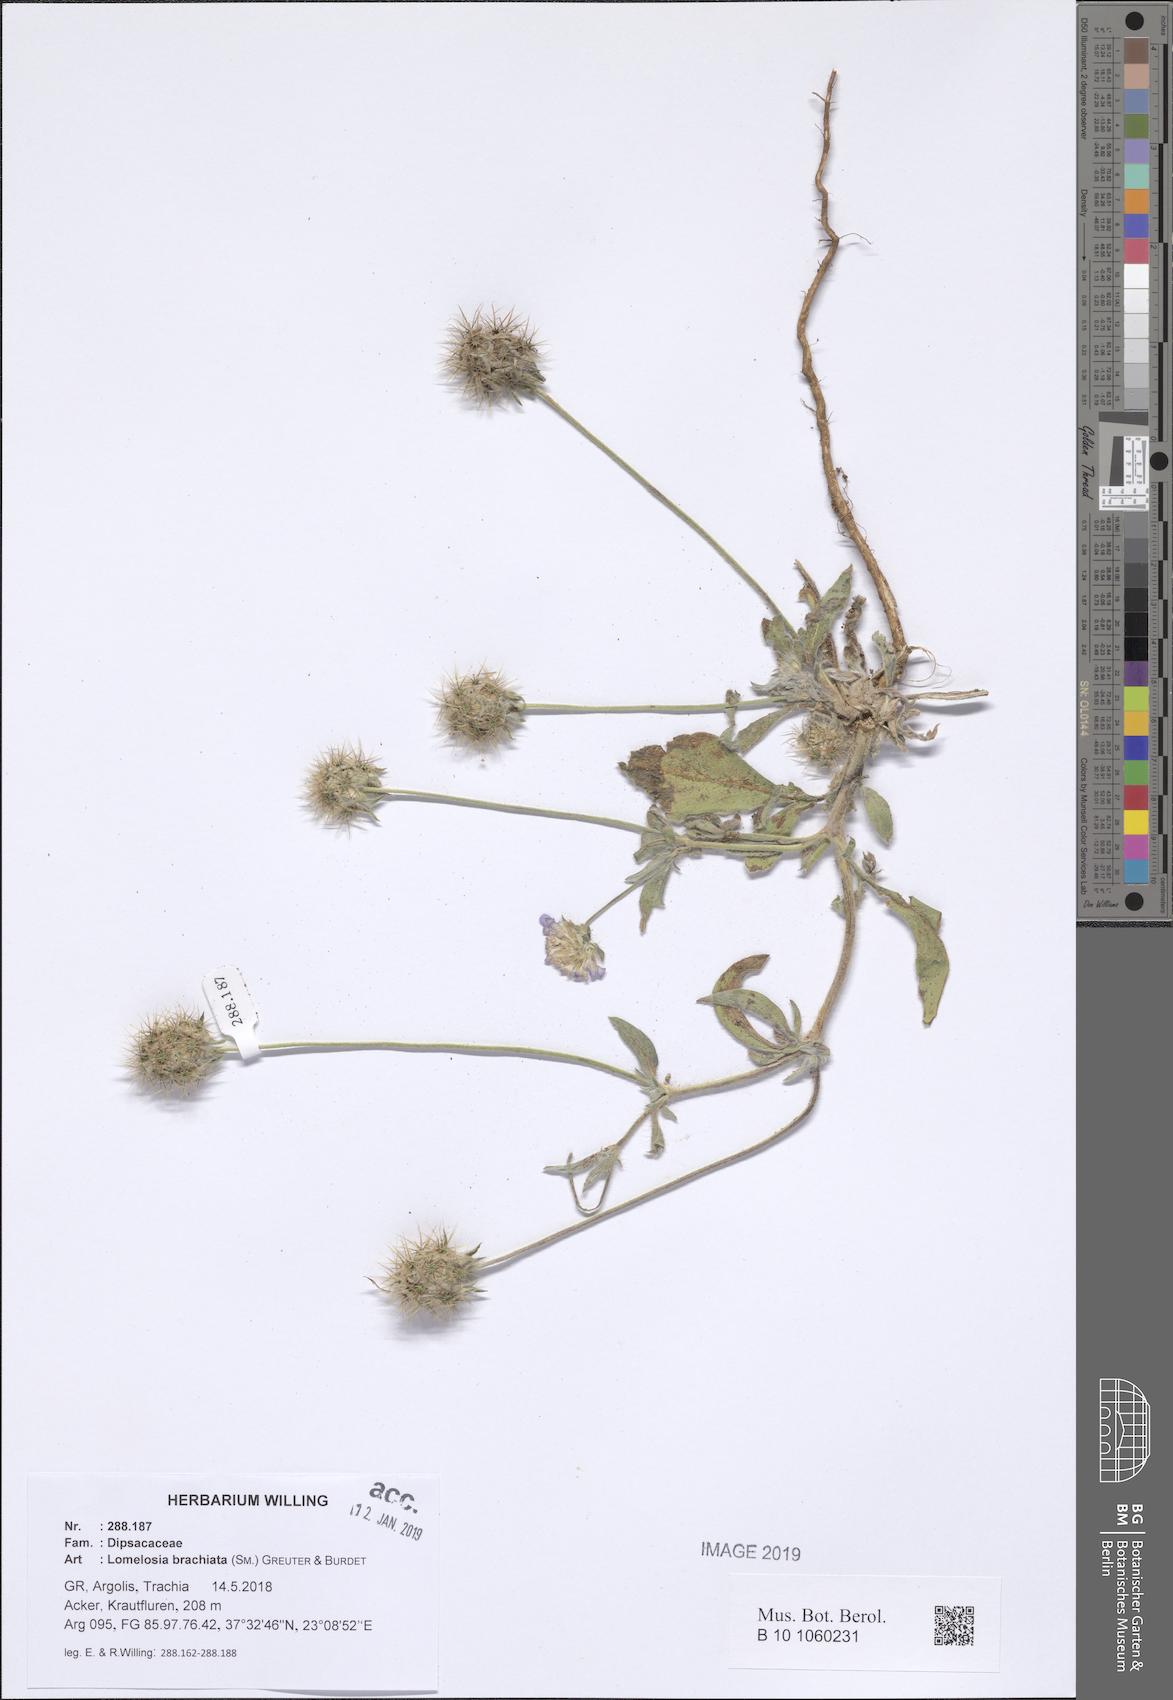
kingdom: Plantae
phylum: Tracheophyta
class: Magnoliopsida
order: Dipsacales
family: Caprifoliaceae
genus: Lomelosia
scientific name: Lomelosia brachiata
